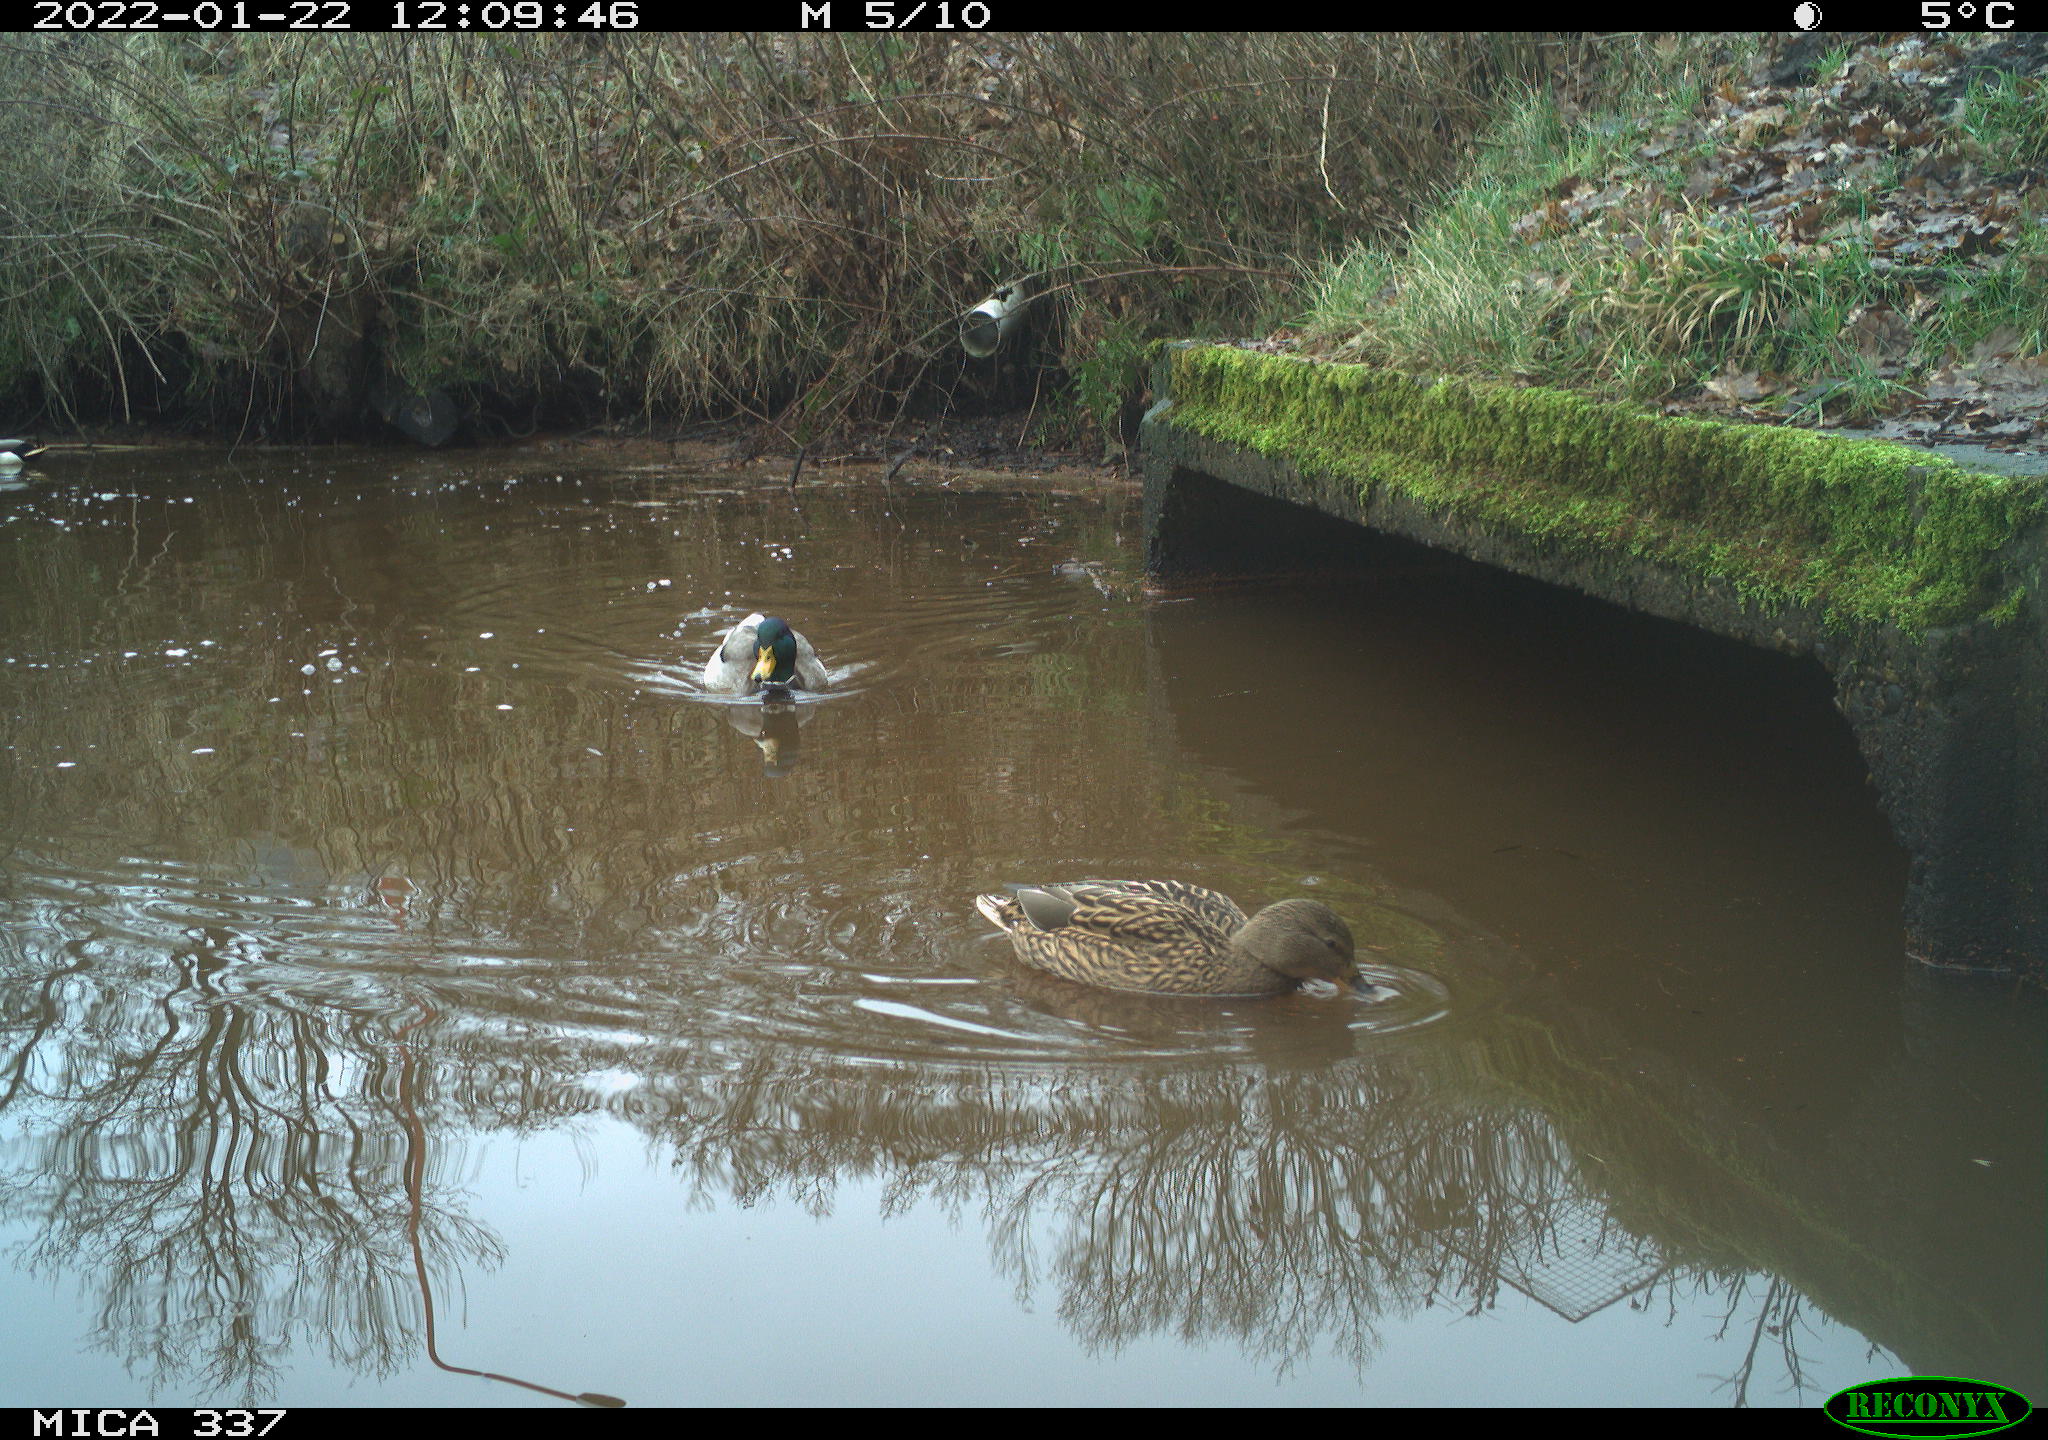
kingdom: Animalia
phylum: Chordata
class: Aves
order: Anseriformes
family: Anatidae
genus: Anas
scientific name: Anas platyrhynchos
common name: Mallard
